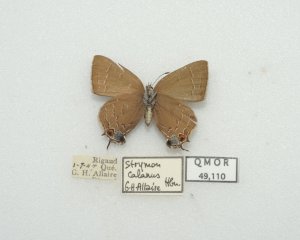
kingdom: Animalia
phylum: Arthropoda
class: Insecta
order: Lepidoptera
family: Lycaenidae
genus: Satyrium
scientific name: Satyrium calanus
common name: Banded Hairstreak
